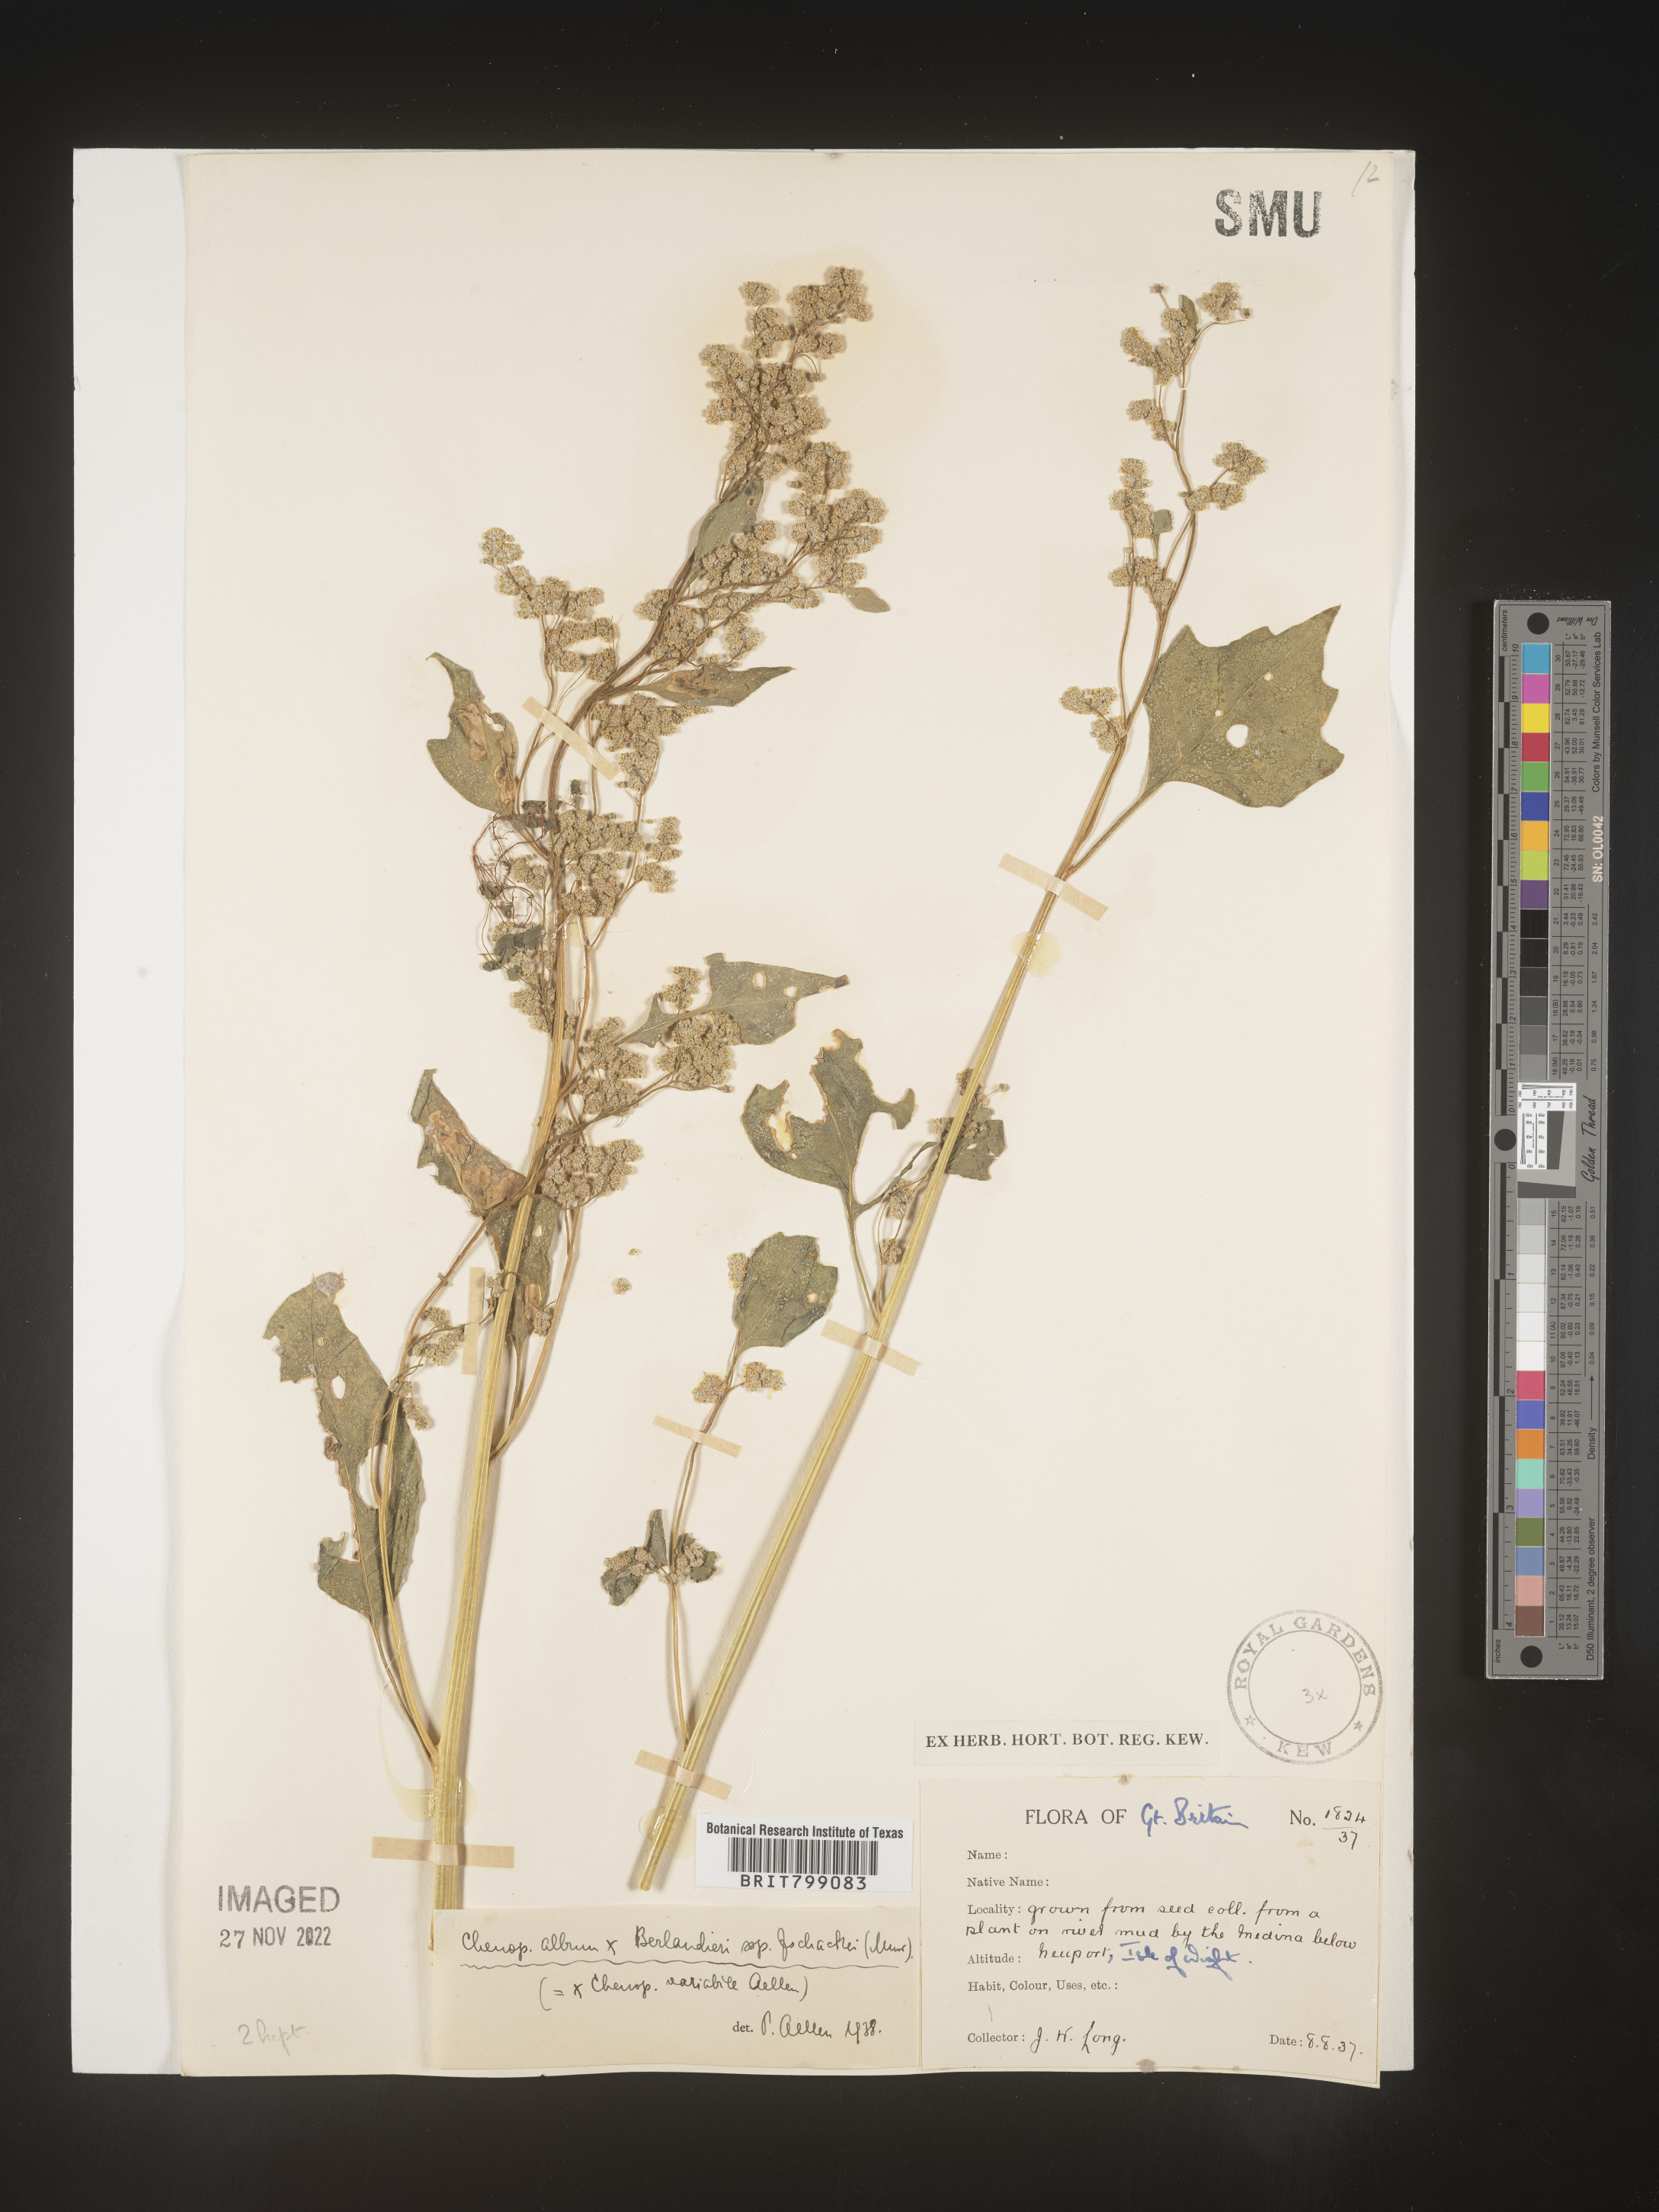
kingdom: Plantae
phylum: Tracheophyta
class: Magnoliopsida
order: Caryophyllales
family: Amaranthaceae
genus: Chenopodium
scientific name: Chenopodium
